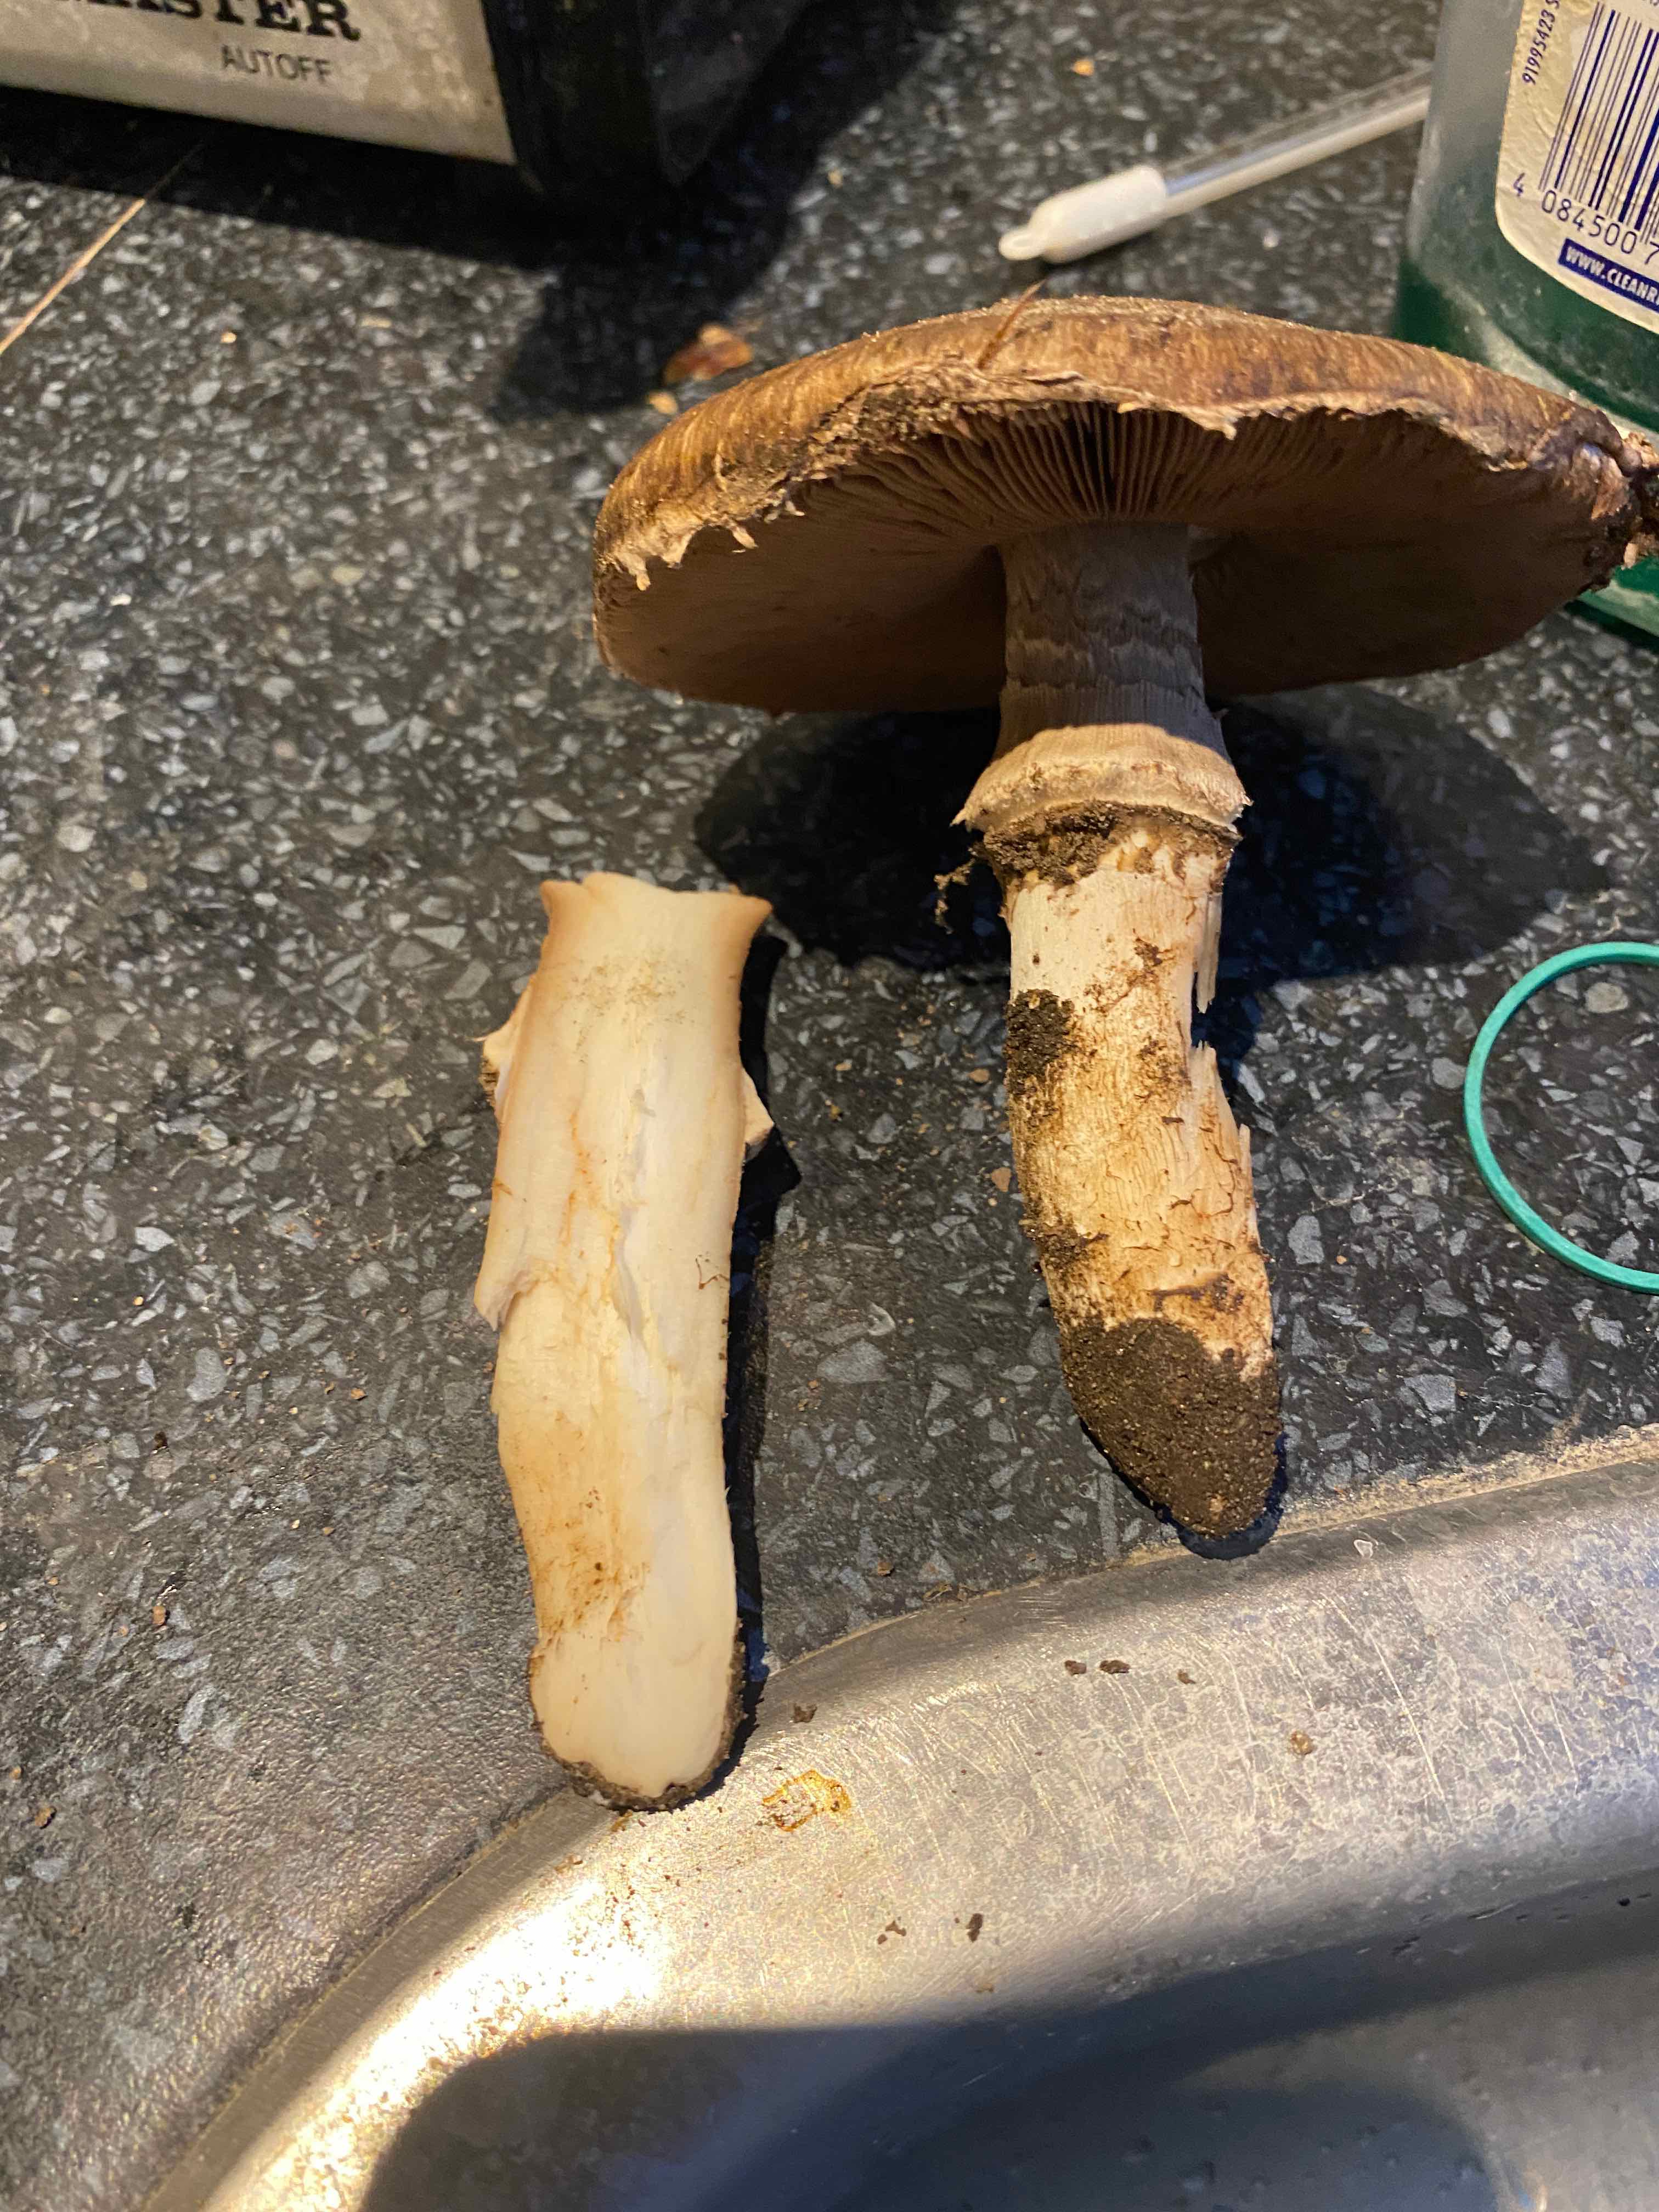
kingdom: Fungi
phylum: Basidiomycota
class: Agaricomycetes
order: Agaricales
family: Agaricaceae
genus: Agaricus
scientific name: Agaricus subperonatus
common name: knippe-champignon
